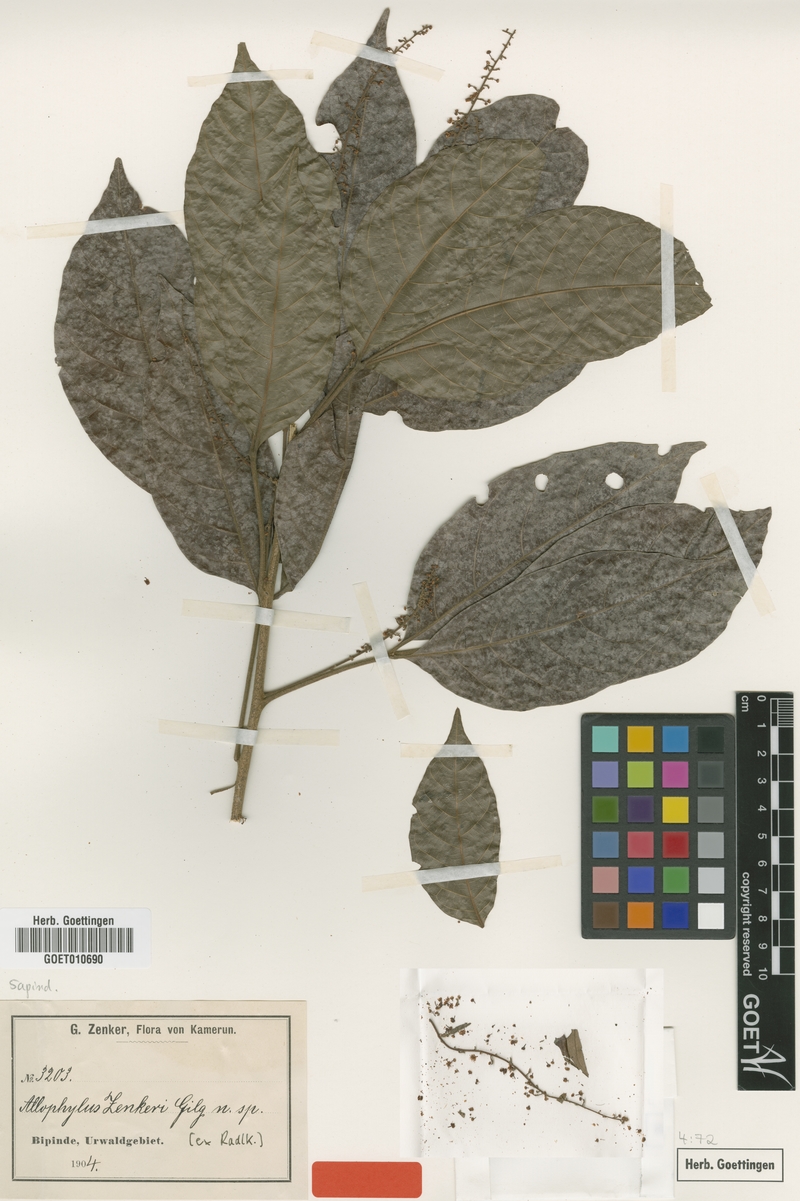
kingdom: Plantae
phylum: Tracheophyta
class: Magnoliopsida
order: Sapindales
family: Sapindaceae
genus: Allophylus
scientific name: Allophylus zenkeri
